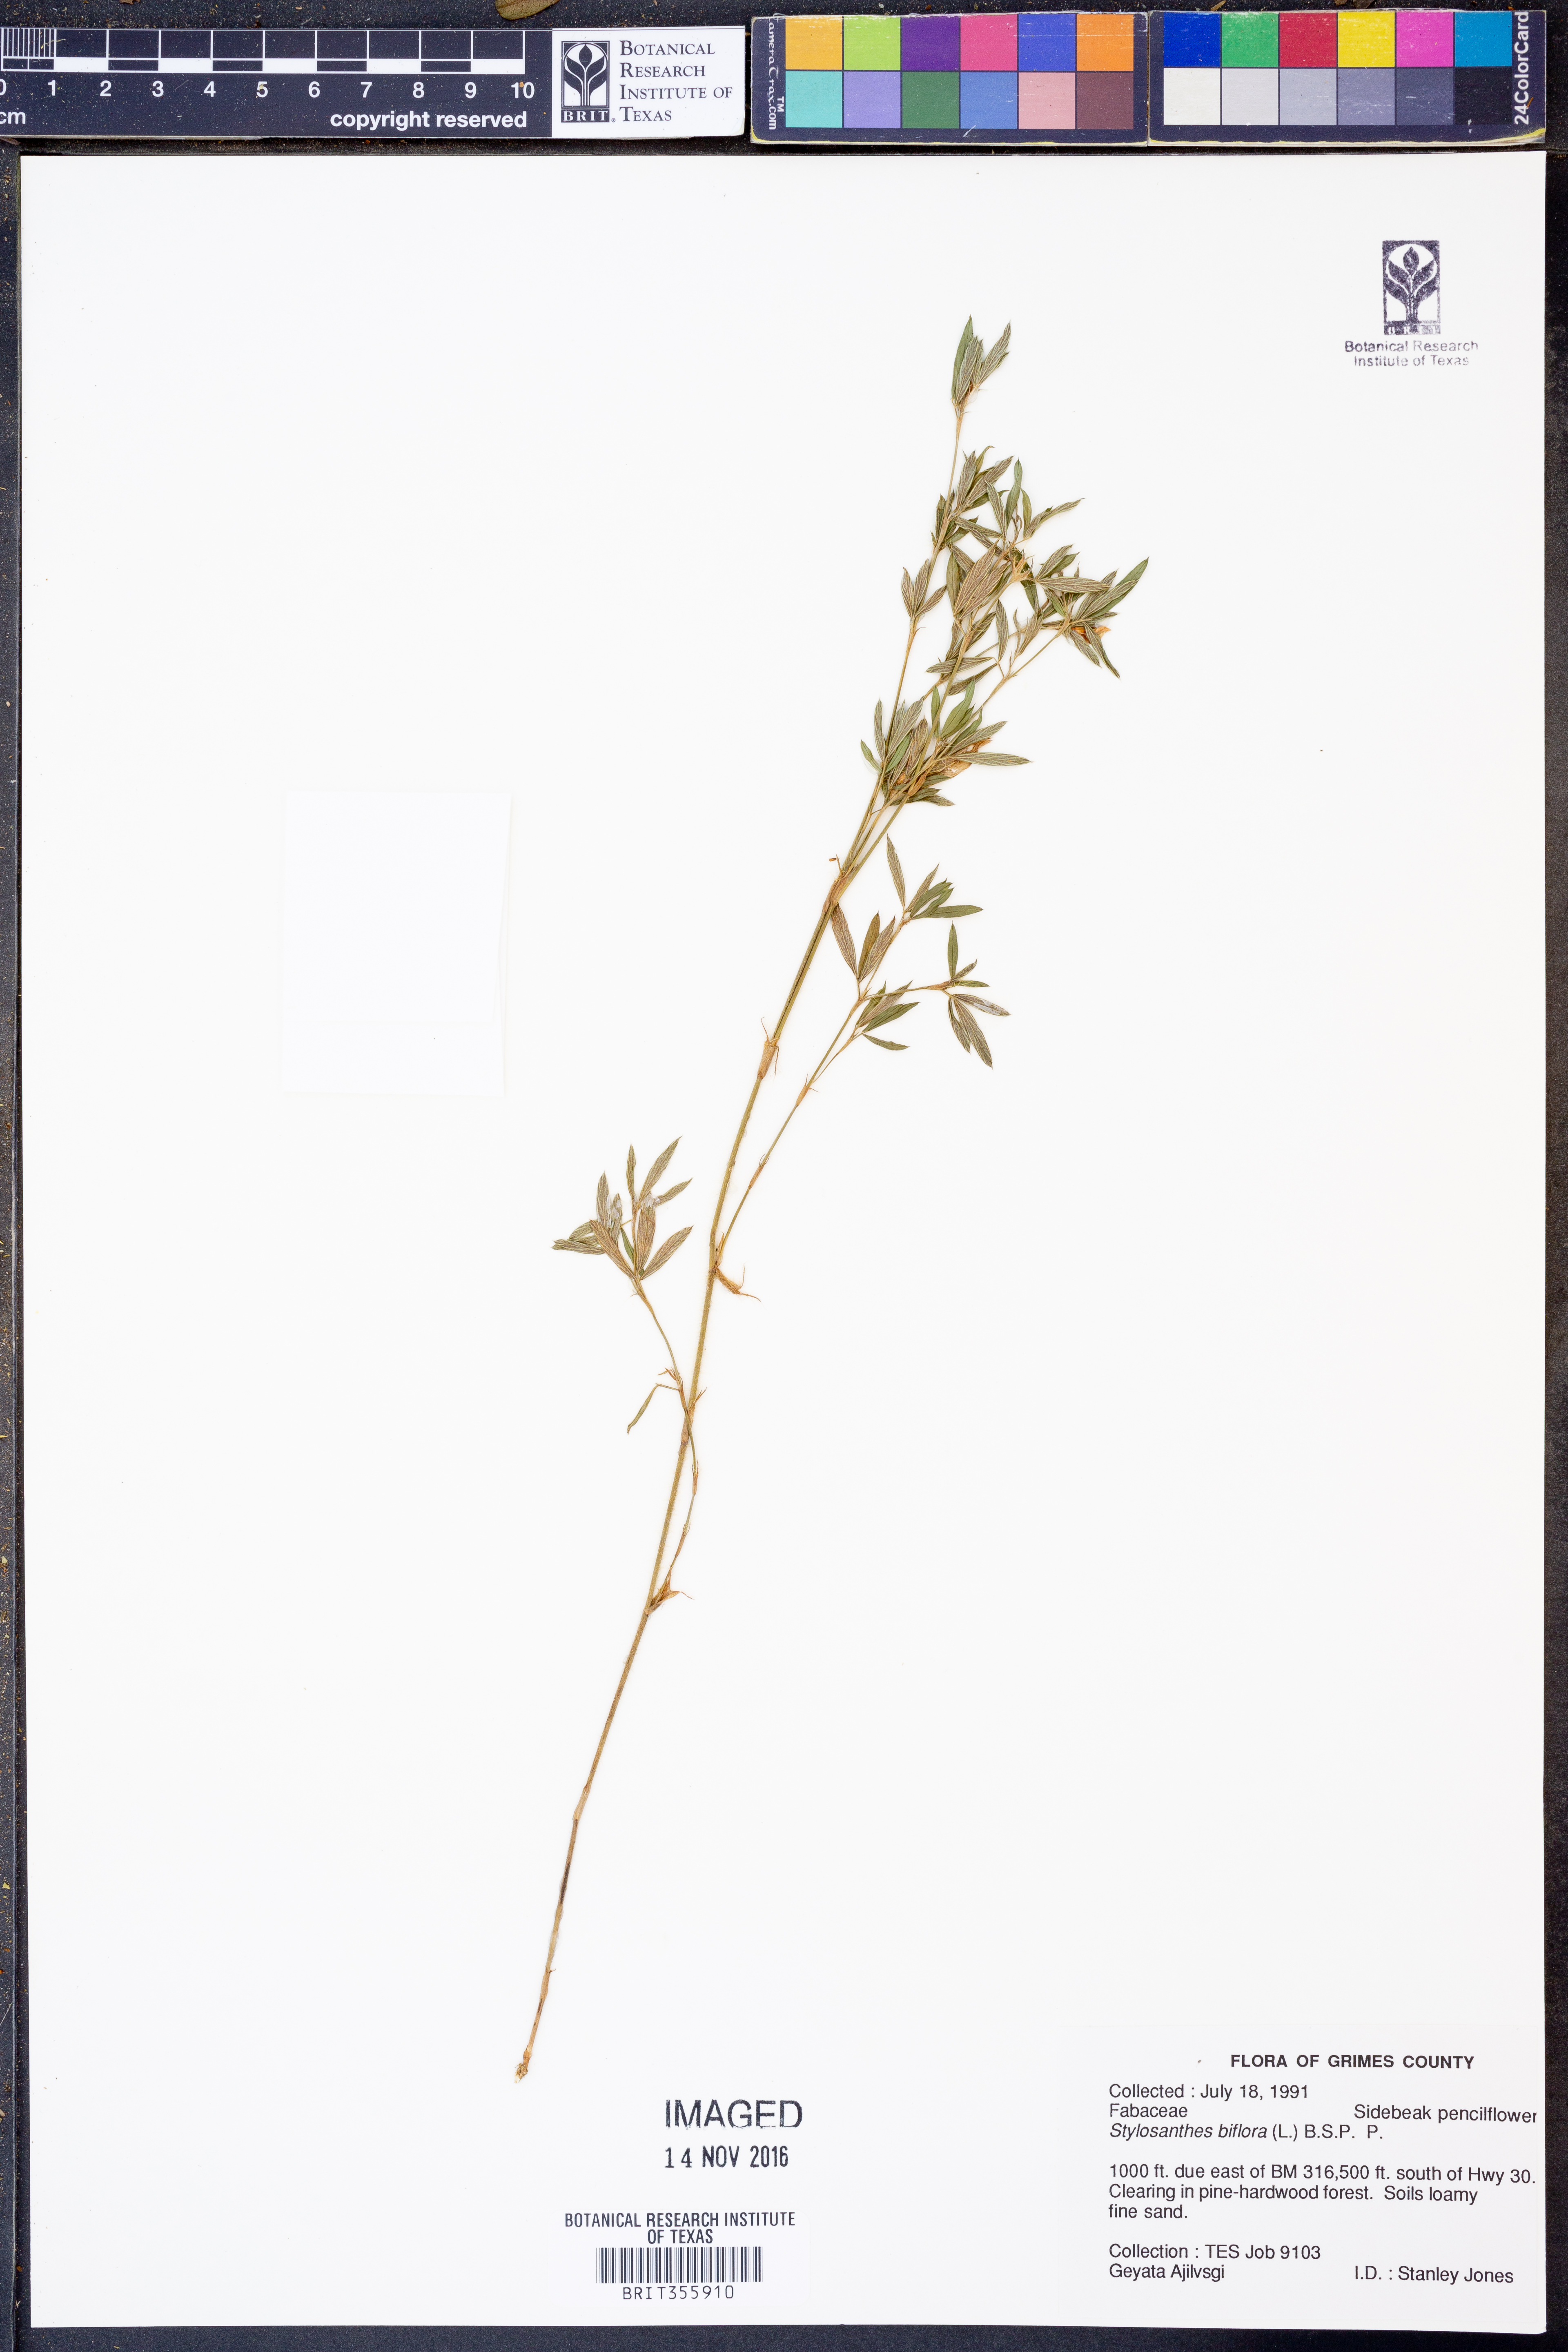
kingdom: Plantae
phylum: Tracheophyta
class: Magnoliopsida
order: Fabales
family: Fabaceae
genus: Stylosanthes
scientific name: Stylosanthes biflora
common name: Two-flower pencil-flower
